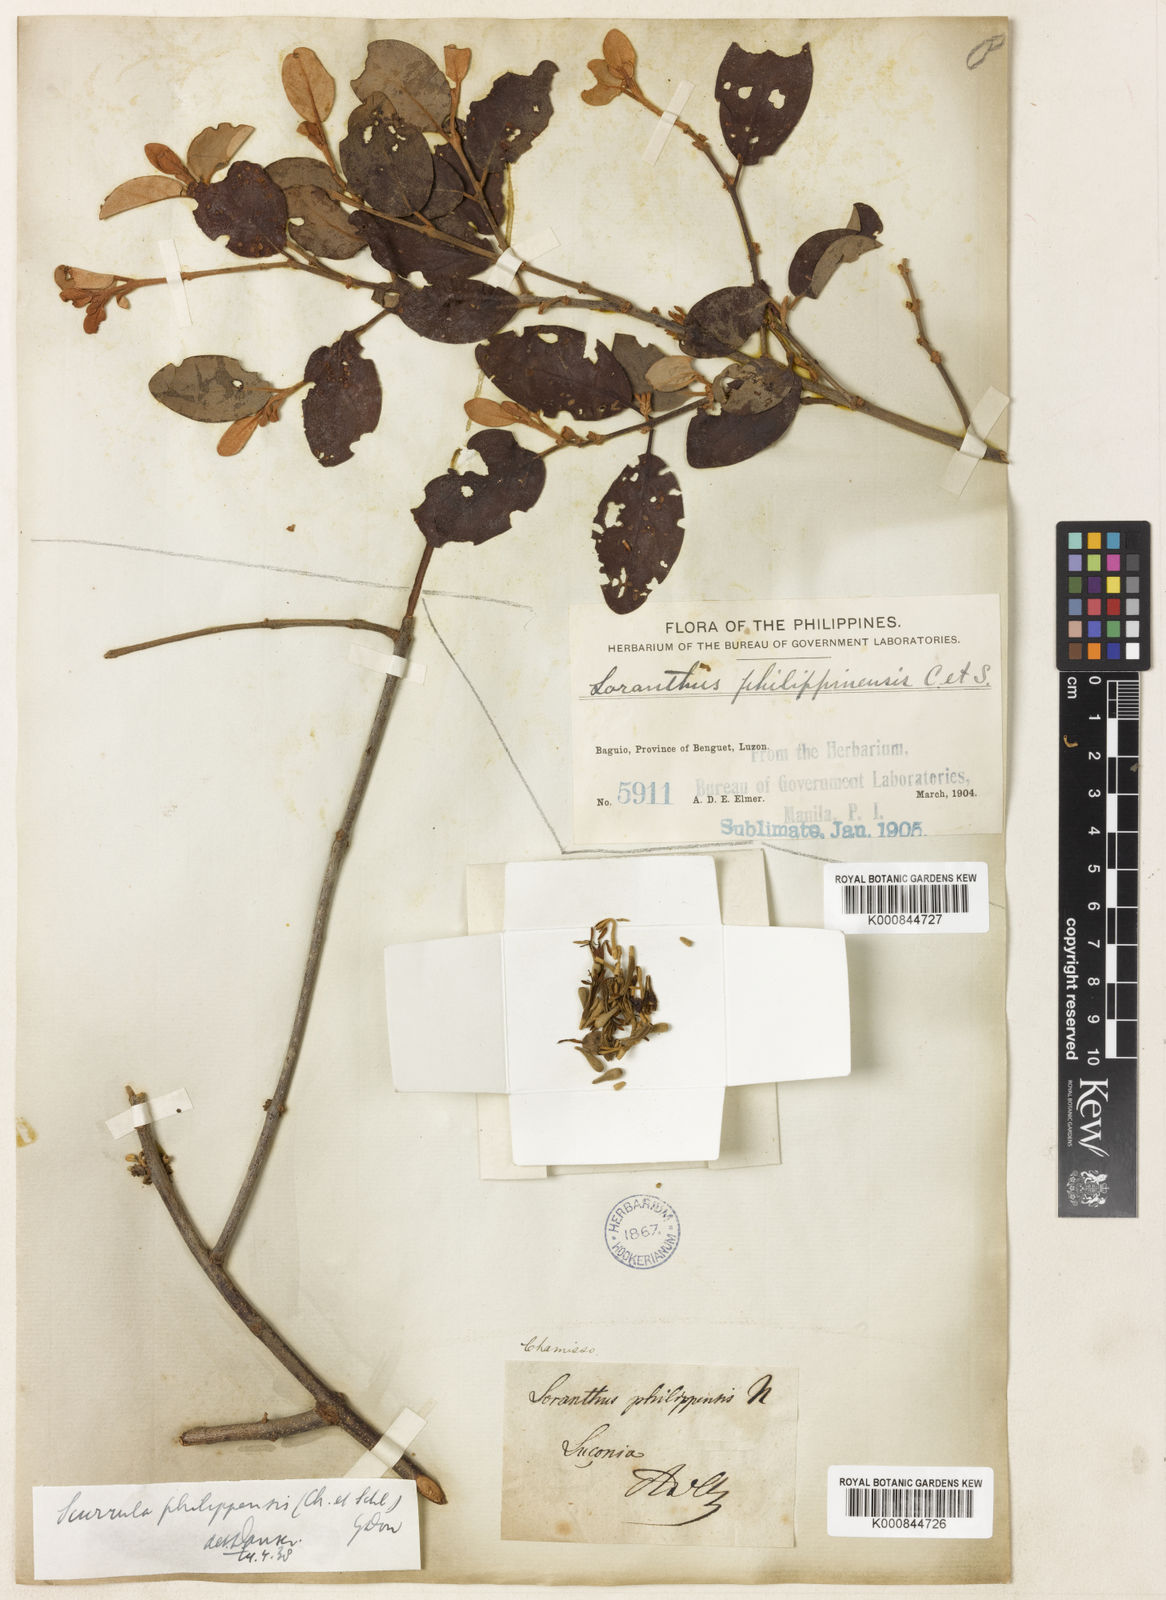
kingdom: Plantae
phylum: Tracheophyta
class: Magnoliopsida
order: Santalales
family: Loranthaceae
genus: Scurrula
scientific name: Scurrula atropurpurea
